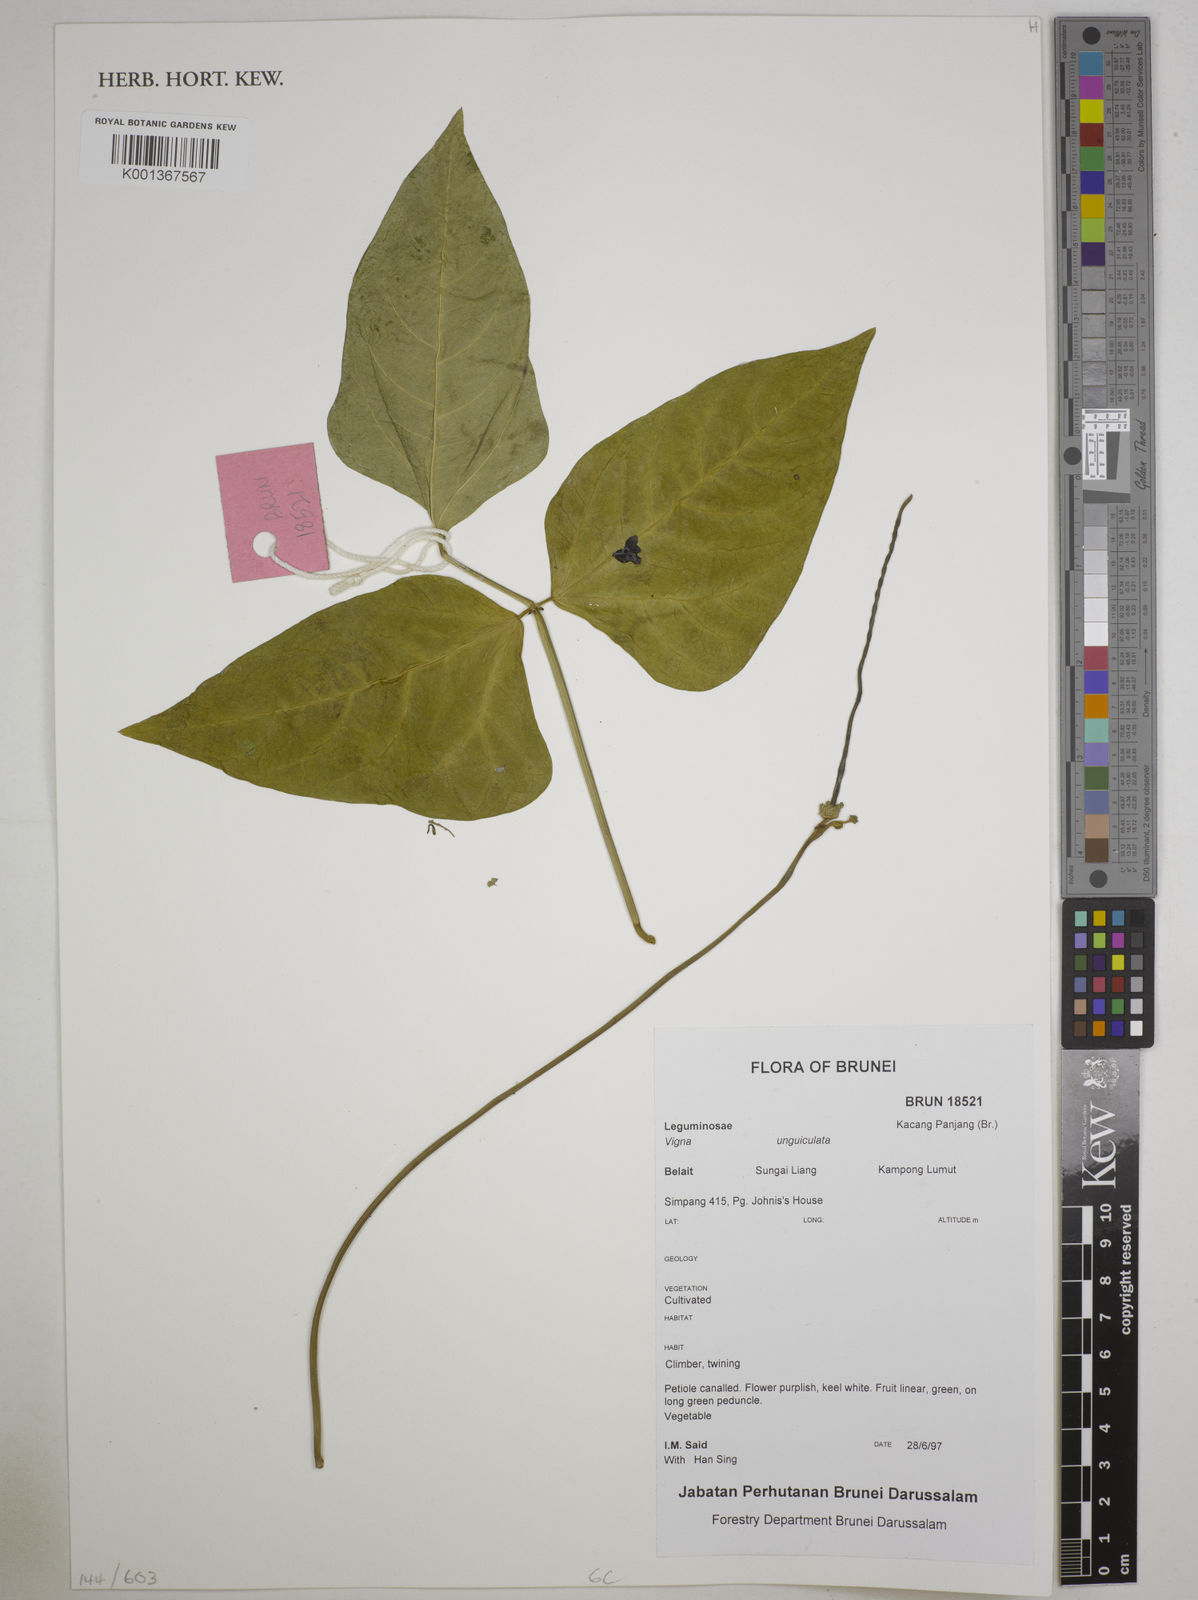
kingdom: Plantae
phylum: Tracheophyta
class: Magnoliopsida
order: Fabales
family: Fabaceae
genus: Vigna
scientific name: Vigna unguiculata
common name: Cowpea
